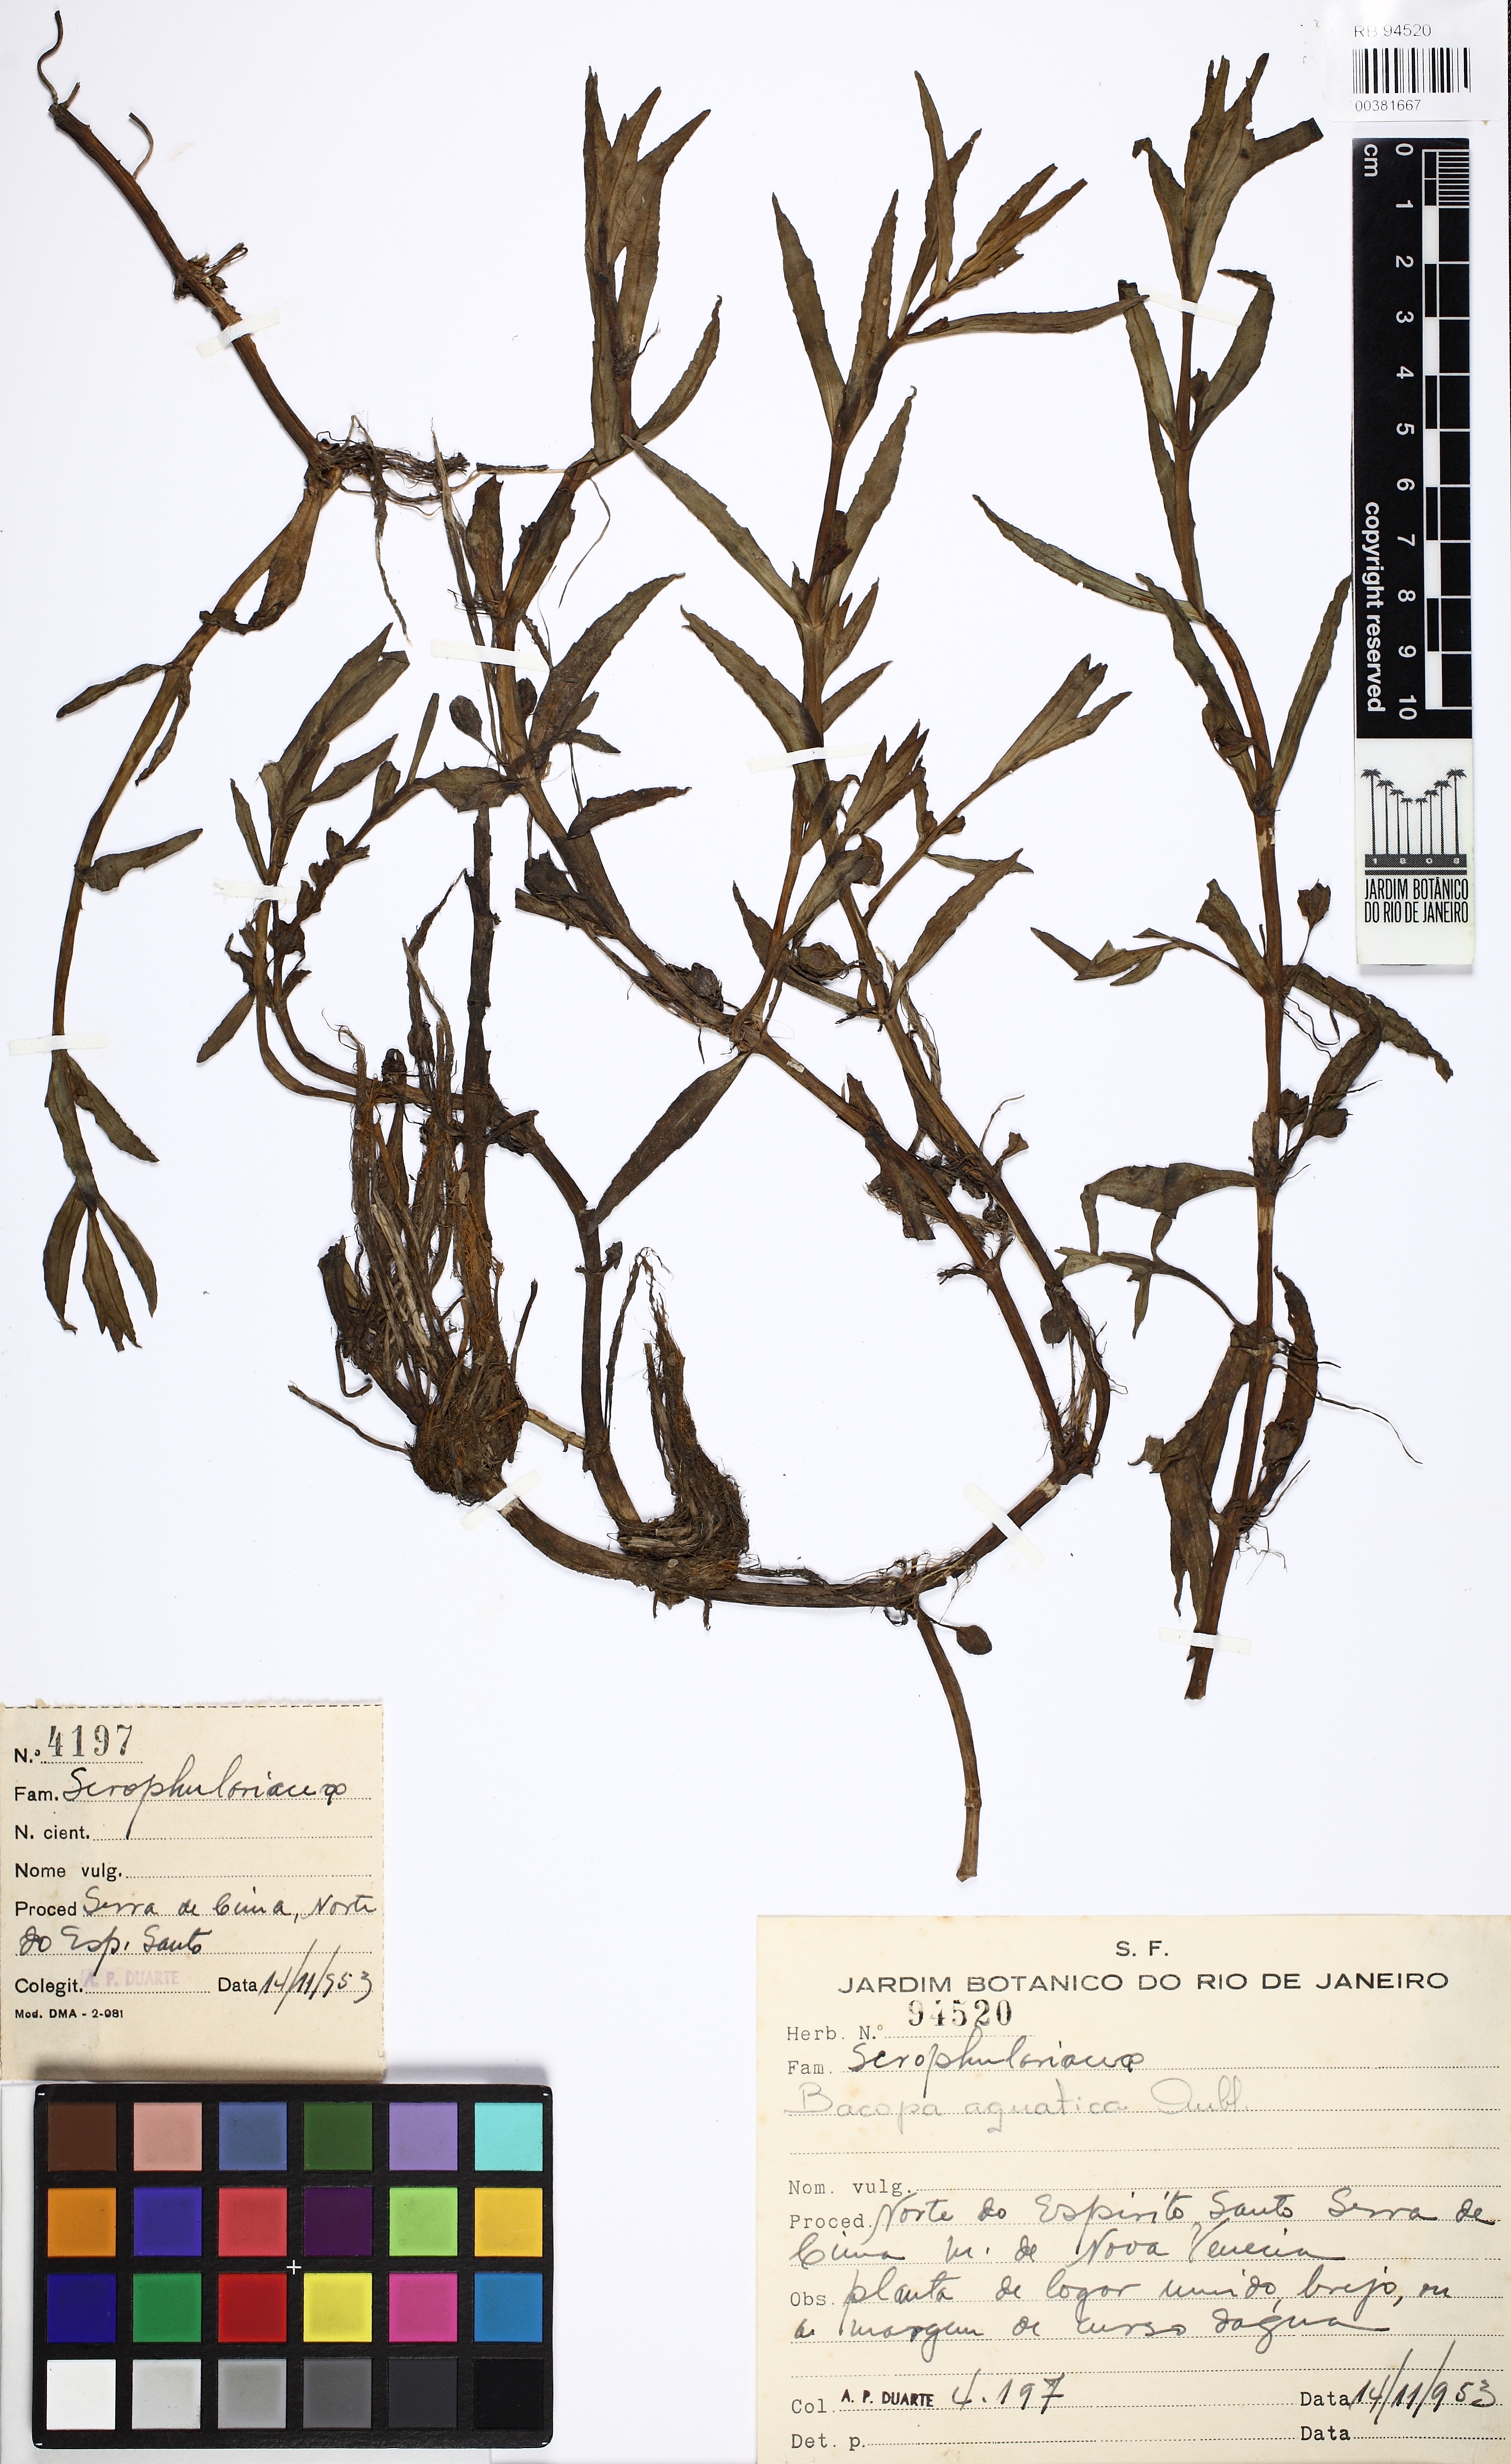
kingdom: Plantae
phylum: Tracheophyta
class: Magnoliopsida
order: Lamiales
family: Plantaginaceae
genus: Bacopa
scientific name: Bacopa aquatica
